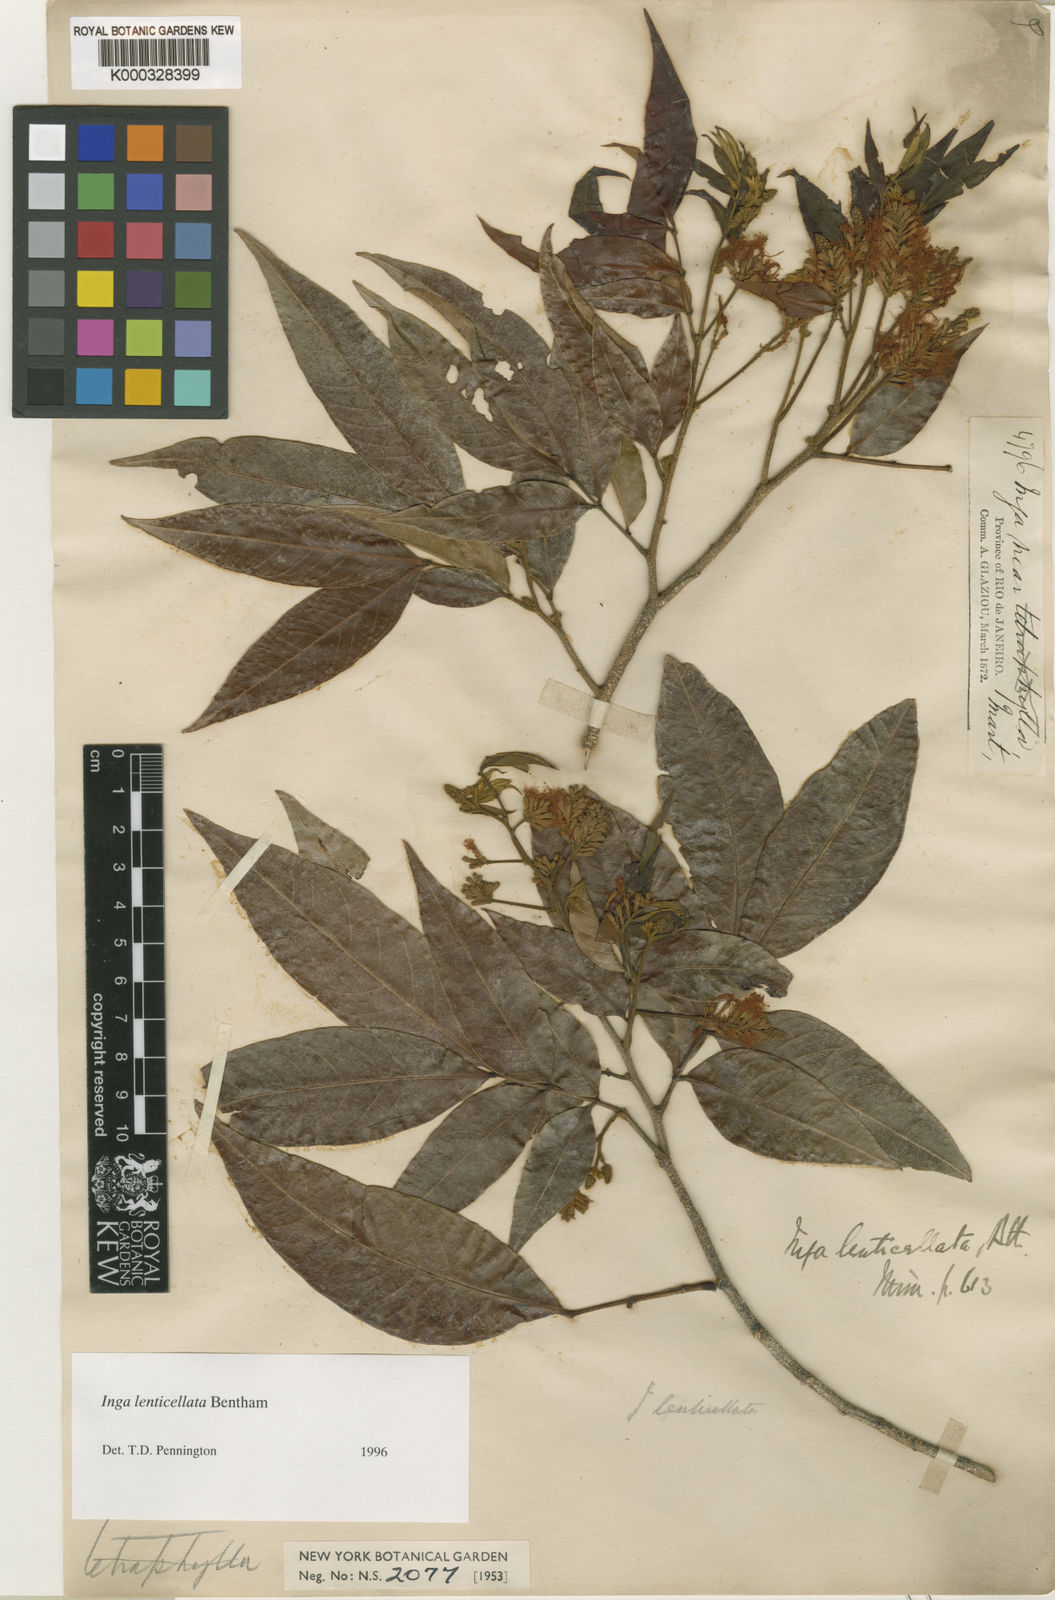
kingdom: Plantae
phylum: Tracheophyta
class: Magnoliopsida
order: Fabales
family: Fabaceae
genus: Inga
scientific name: Inga lenticellata
